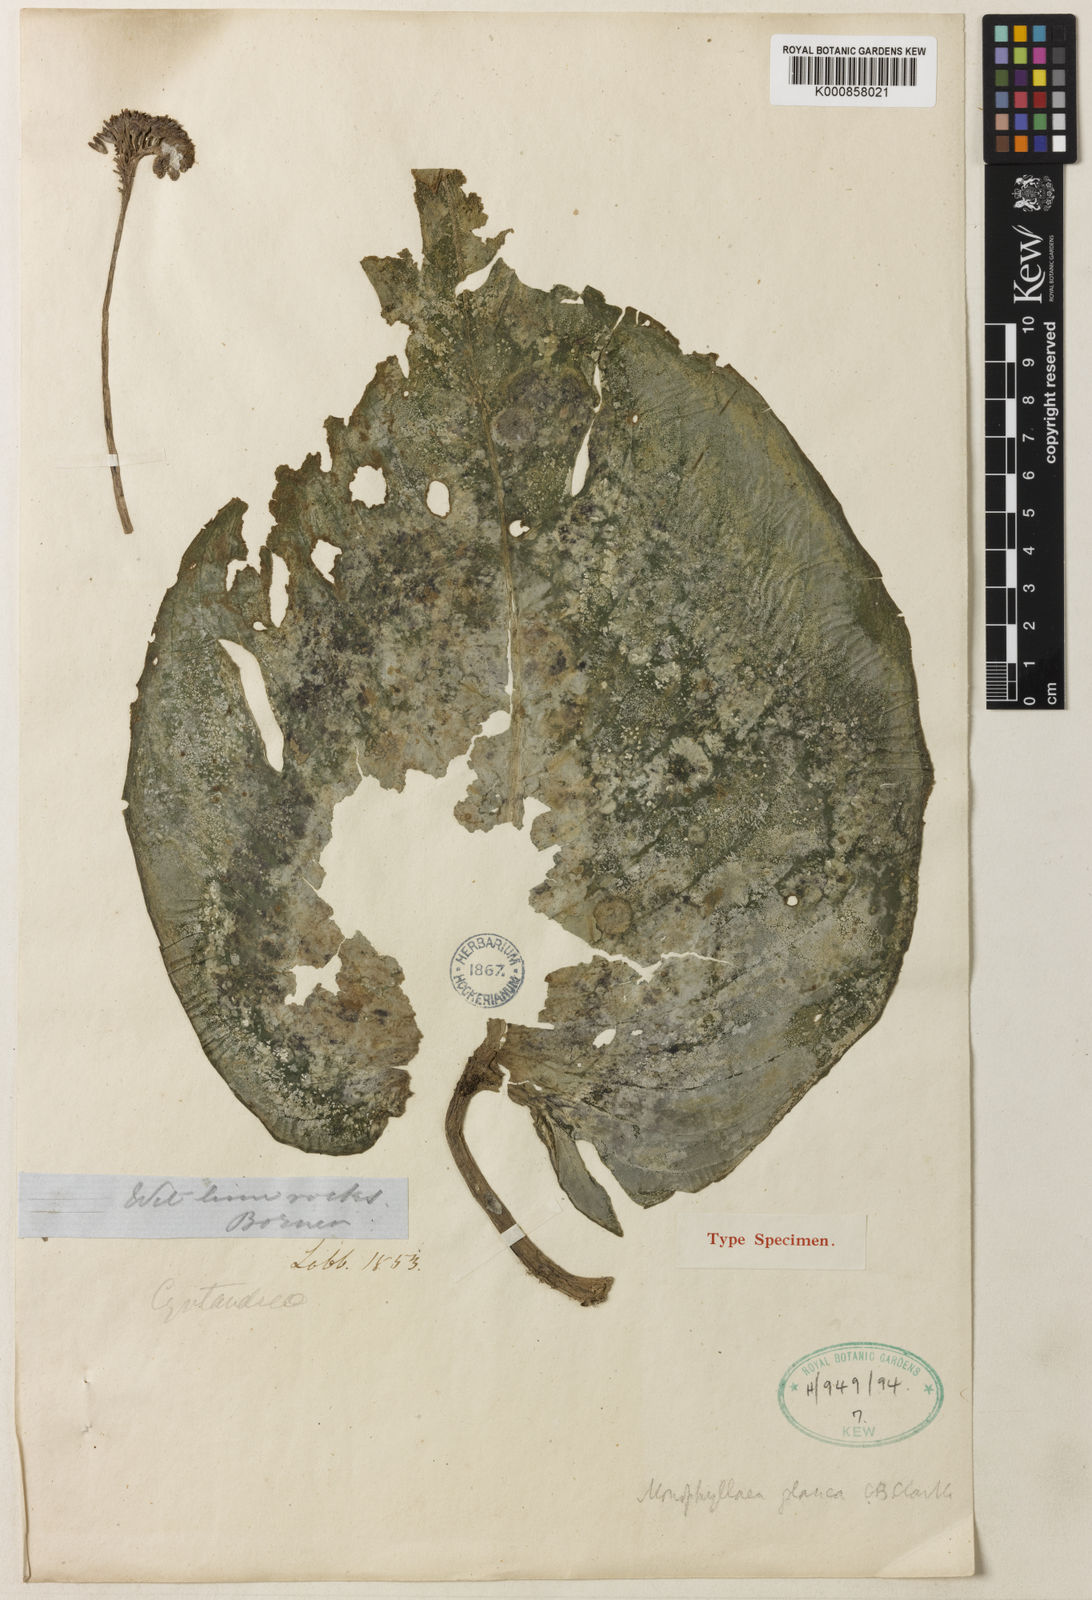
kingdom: Plantae
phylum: Tracheophyta
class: Magnoliopsida
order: Lamiales
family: Gesneriaceae
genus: Monophyllaea
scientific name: Monophyllaea glauca
